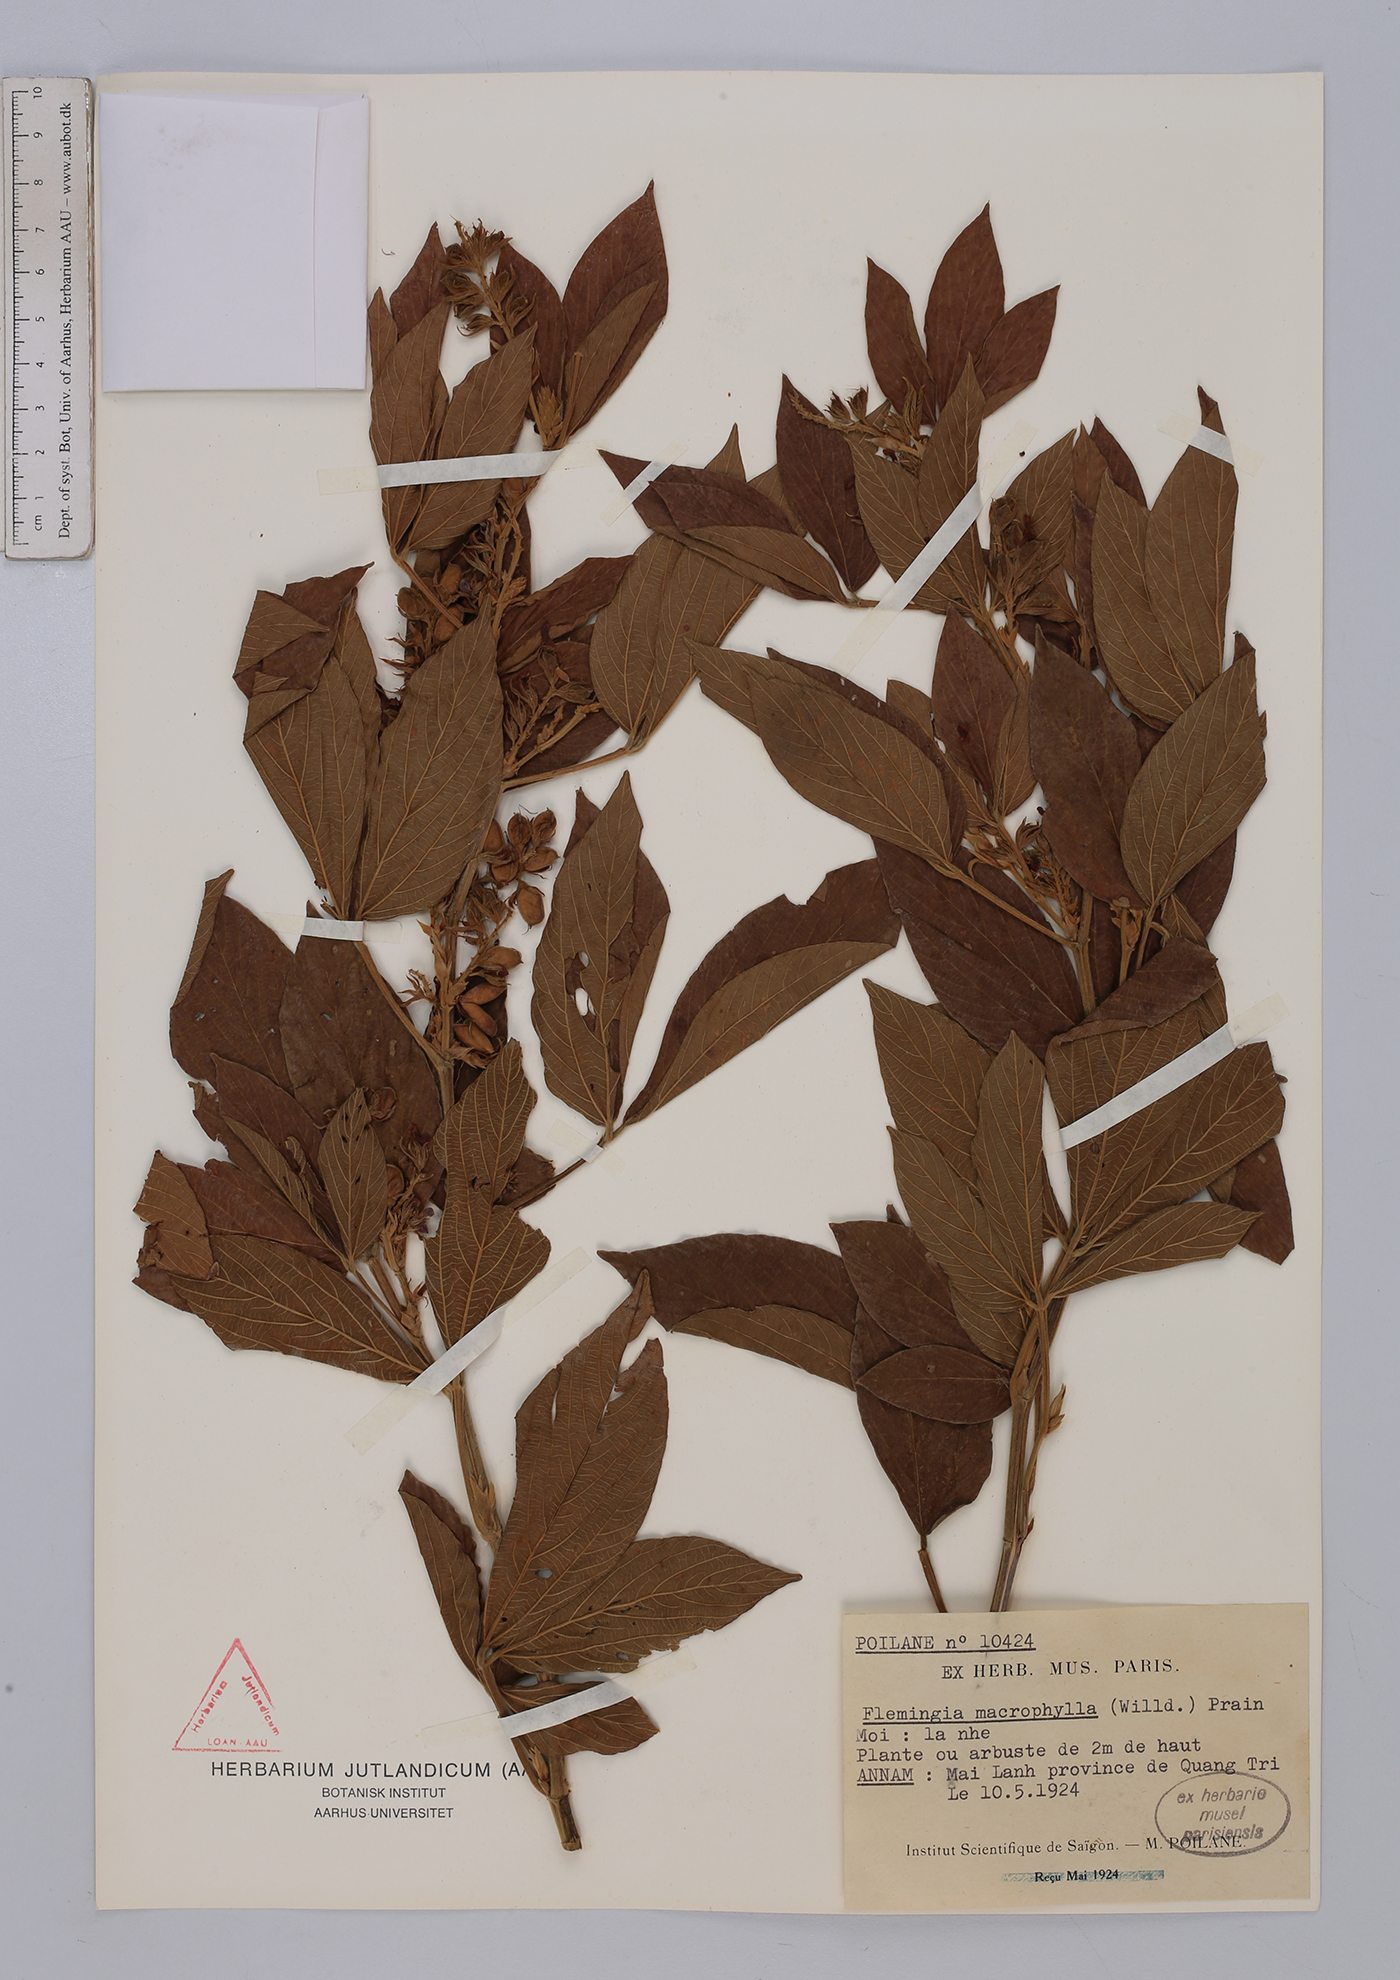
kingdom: Plantae
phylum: Tracheophyta
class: Magnoliopsida
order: Fabales
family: Fabaceae
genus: Flemingia
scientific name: Flemingia macrophylla
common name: Flemingia
